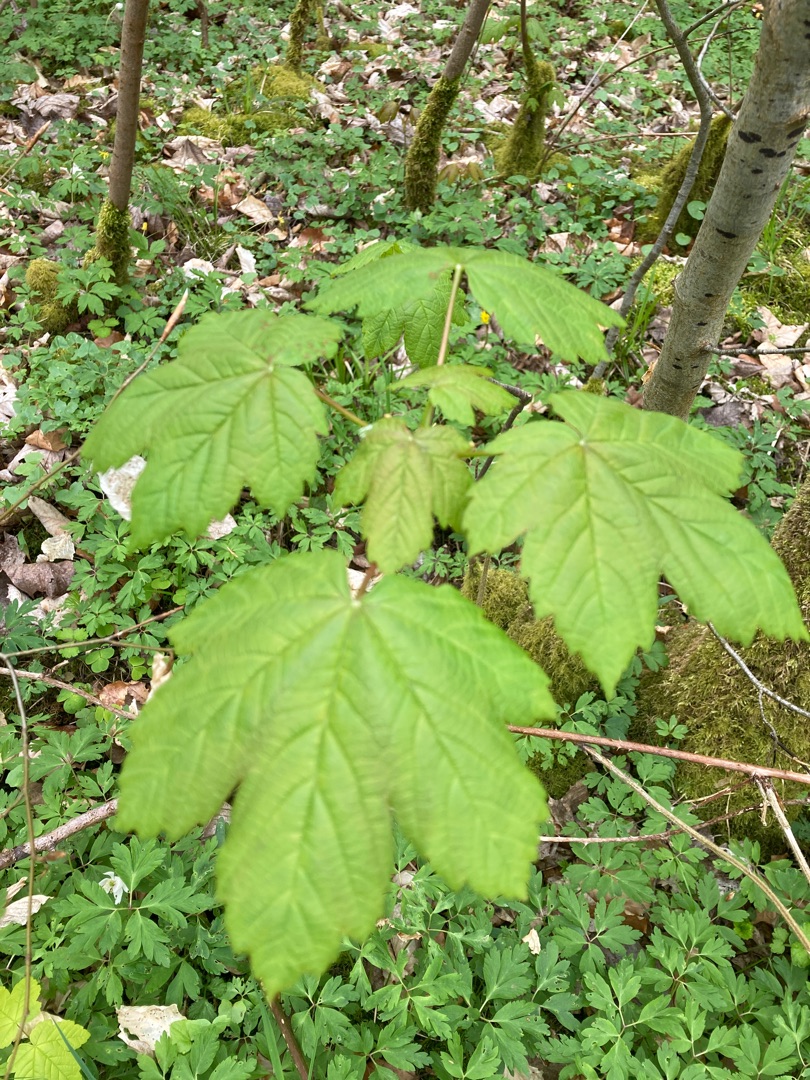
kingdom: Plantae
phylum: Tracheophyta
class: Magnoliopsida
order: Sapindales
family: Sapindaceae
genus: Acer
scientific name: Acer pseudoplatanus
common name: Ahorn
